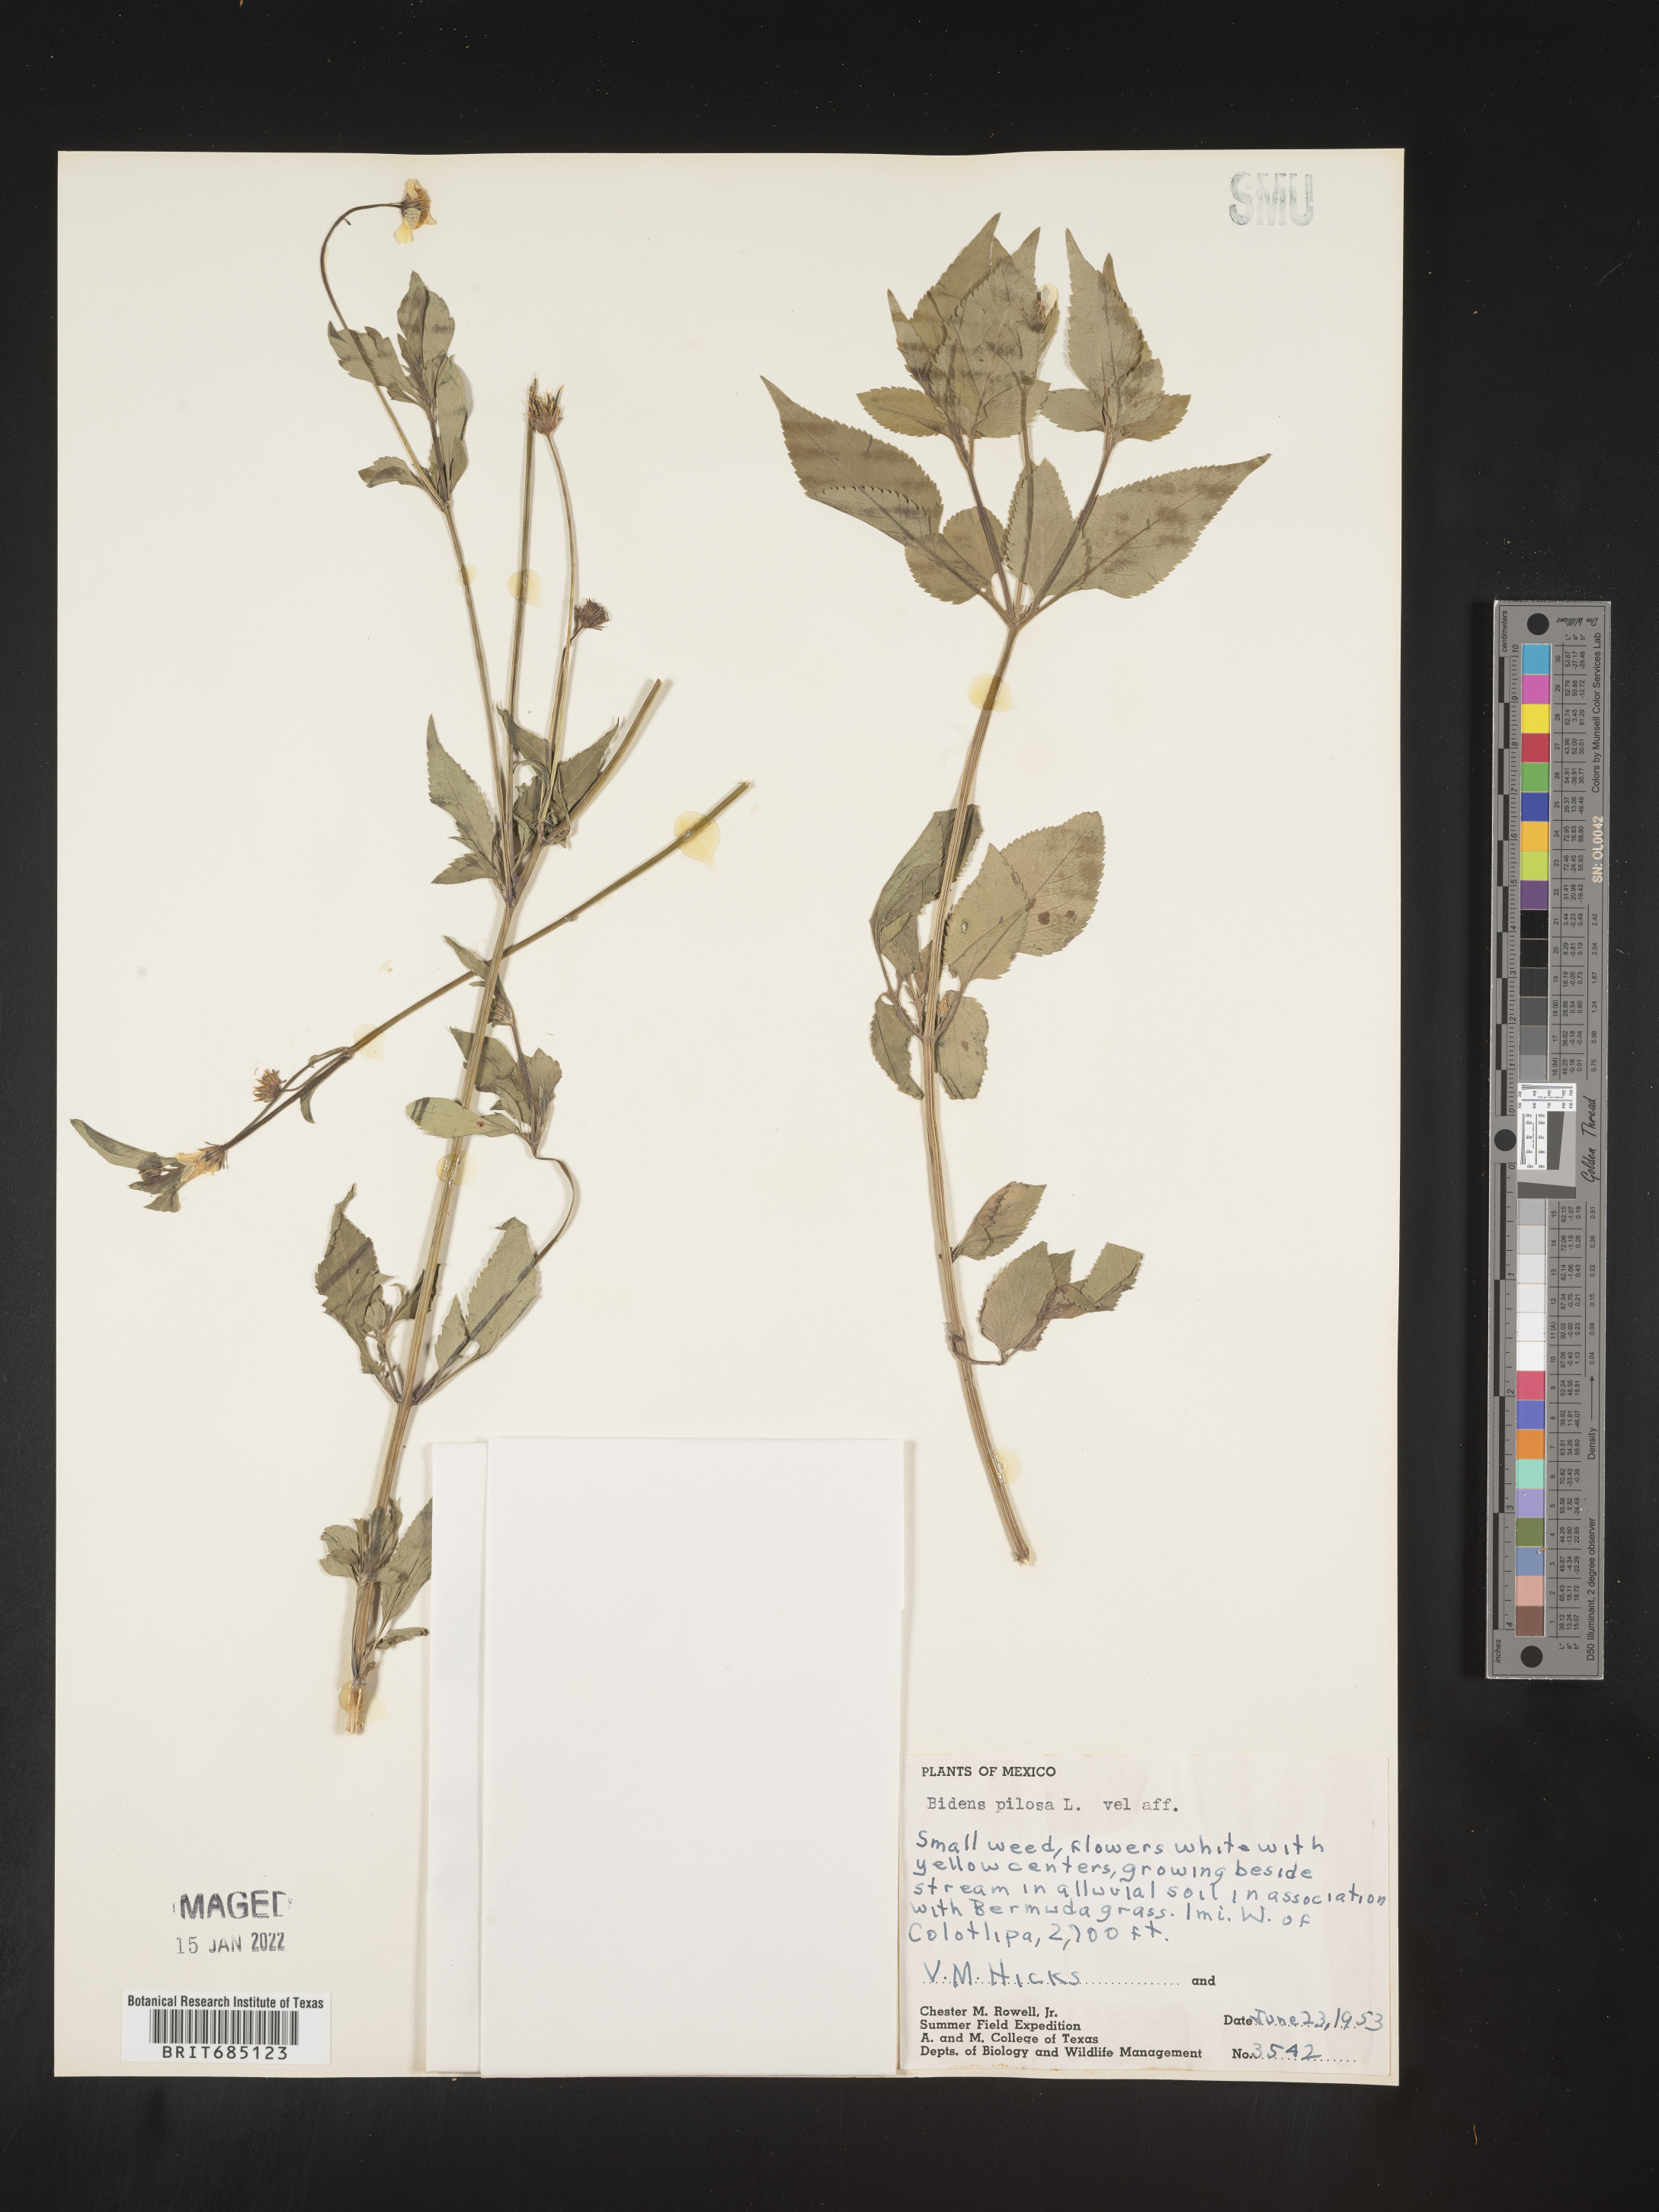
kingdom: Plantae
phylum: Tracheophyta
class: Magnoliopsida
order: Asterales
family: Asteraceae
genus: Bidens
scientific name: Bidens
